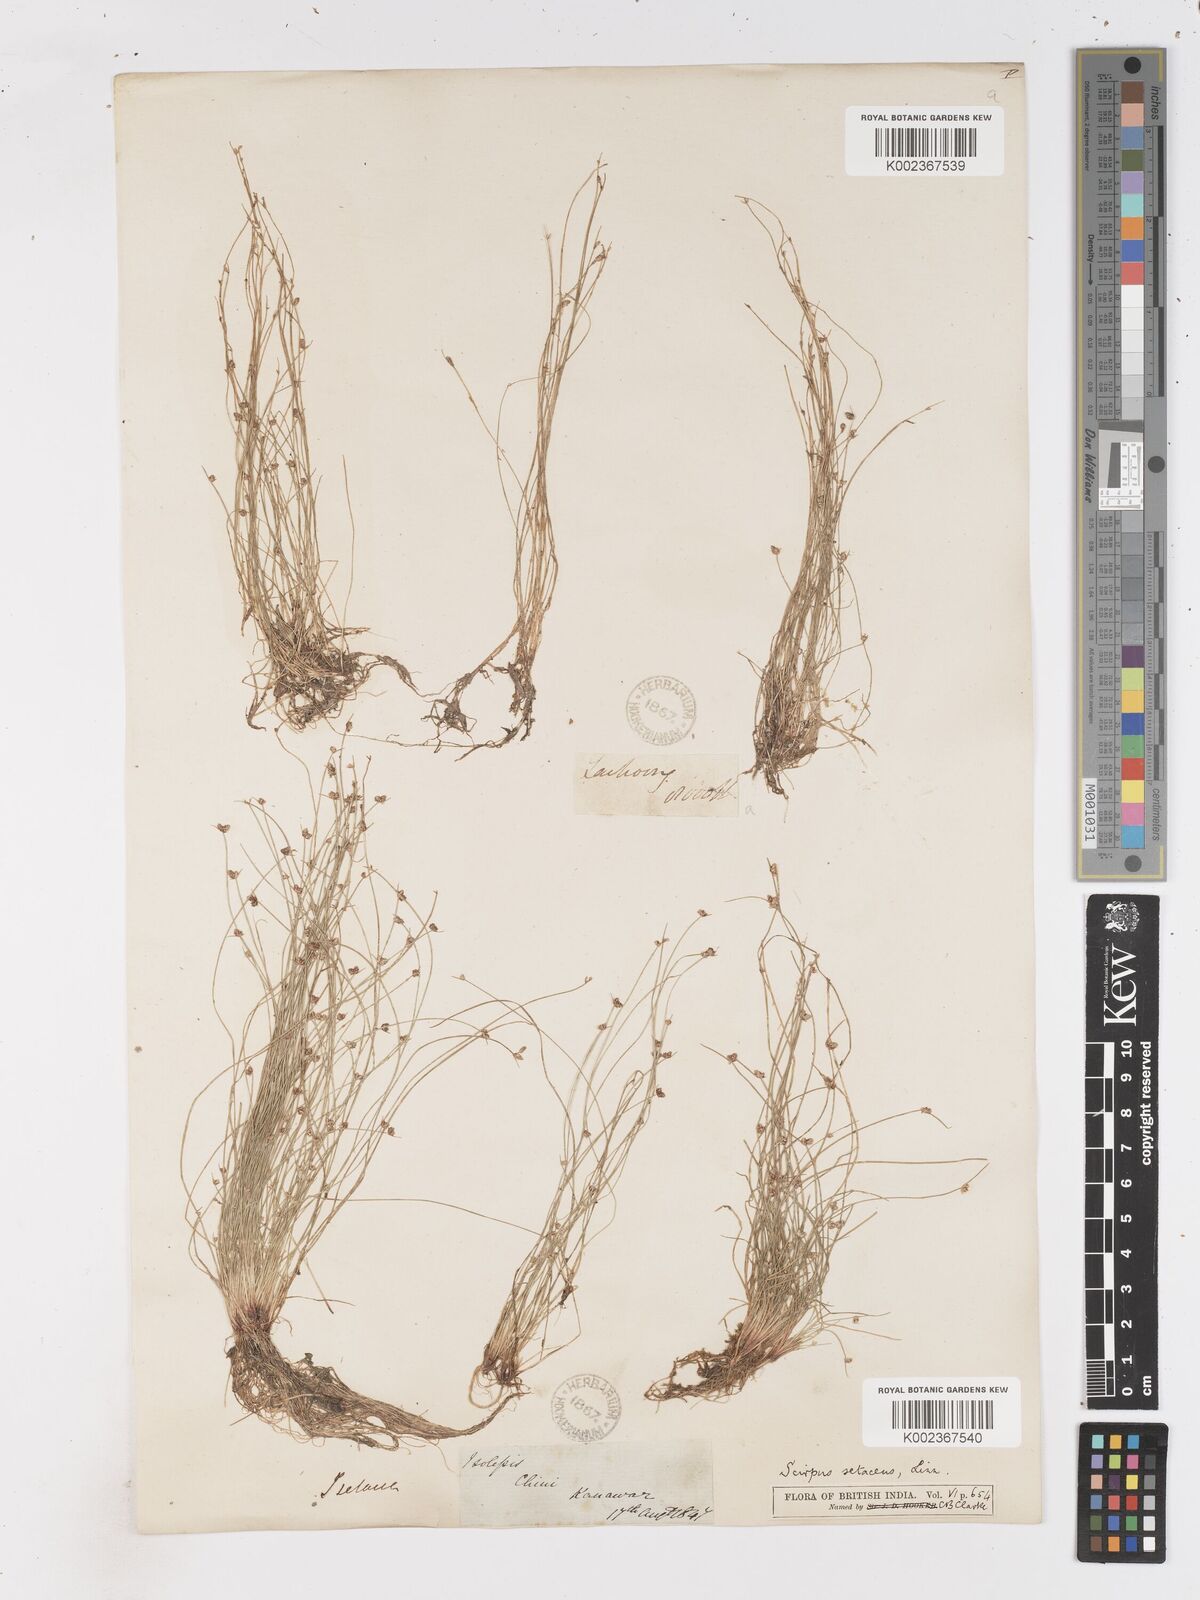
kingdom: Plantae
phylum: Tracheophyta
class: Liliopsida
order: Poales
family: Cyperaceae
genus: Isolepis
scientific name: Isolepis setacea
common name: Bristle club-rush
